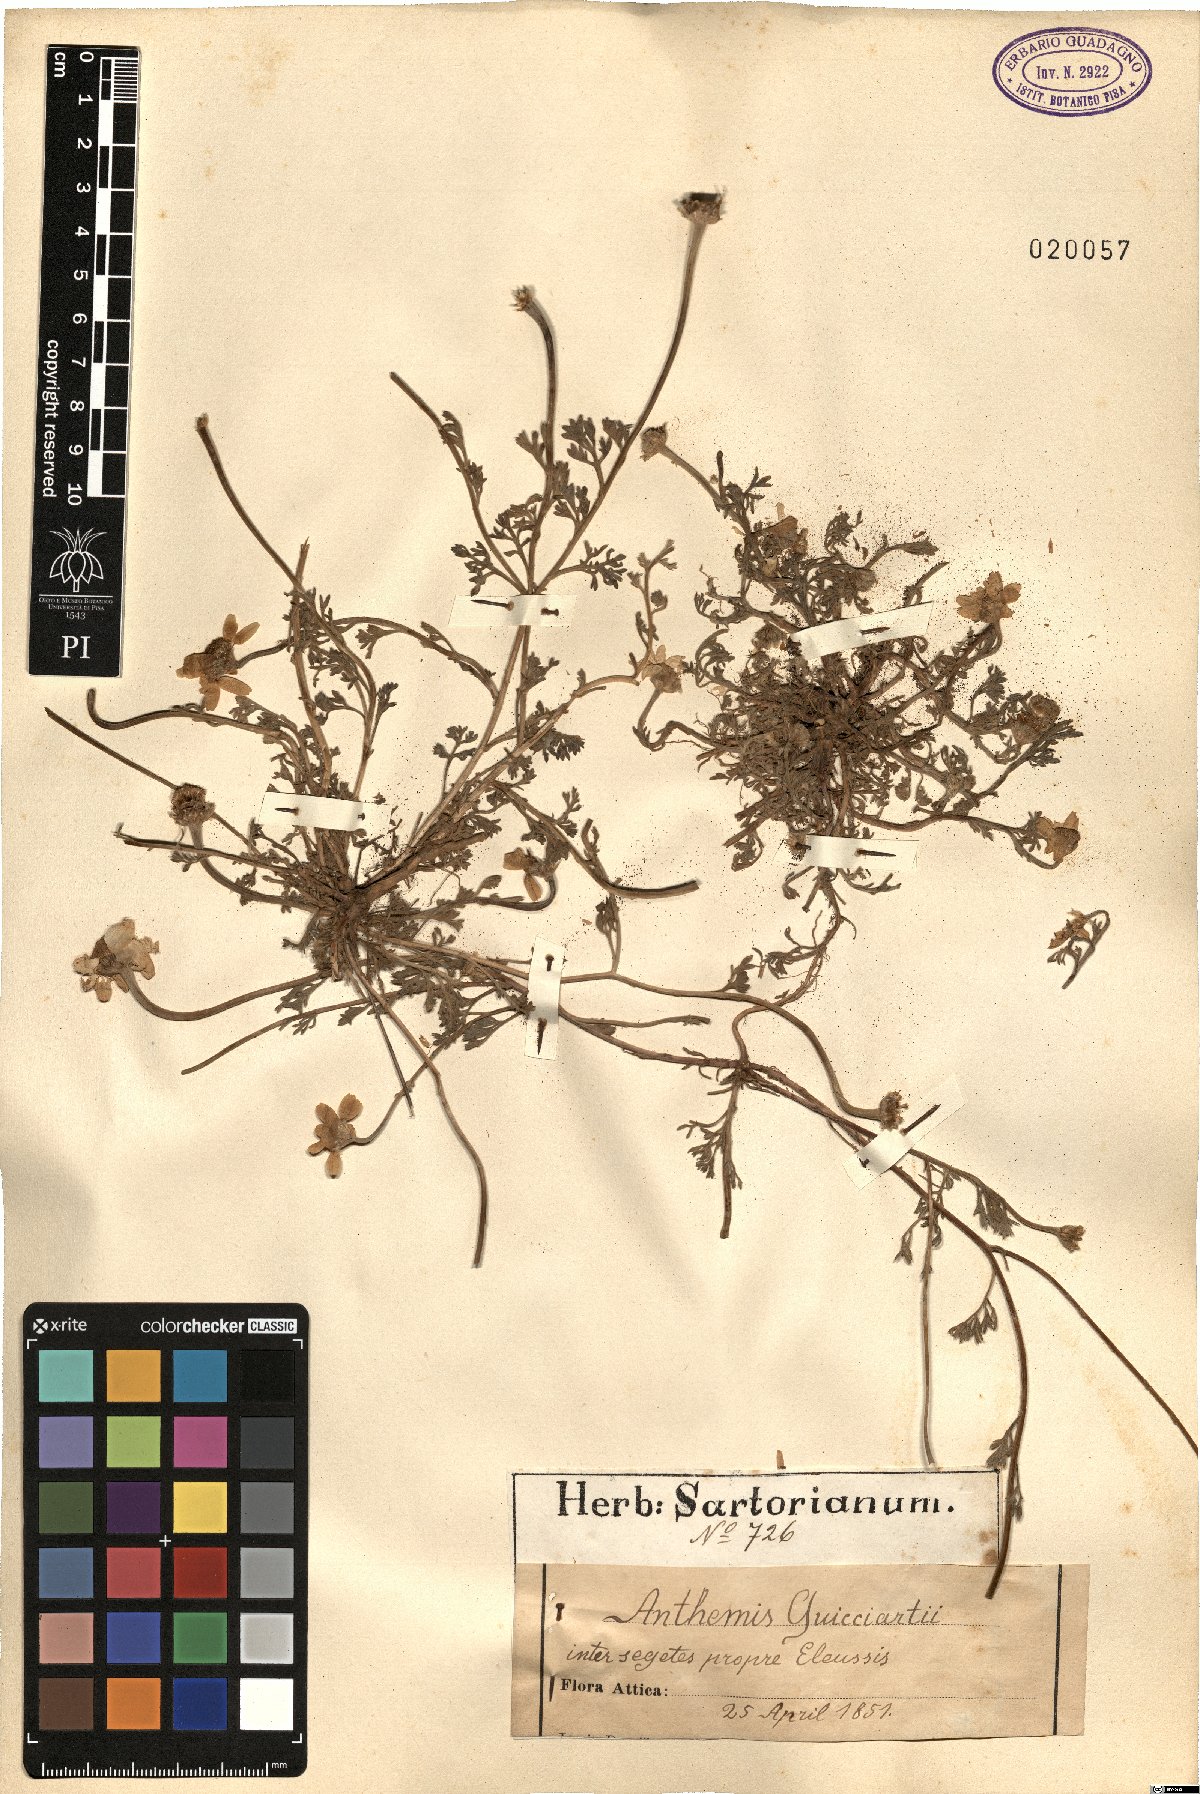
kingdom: Plantae
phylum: Tracheophyta
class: Magnoliopsida
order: Asterales
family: Asteraceae
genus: Anthemis
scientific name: Anthemis tomentosa
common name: Woolly chamomile
